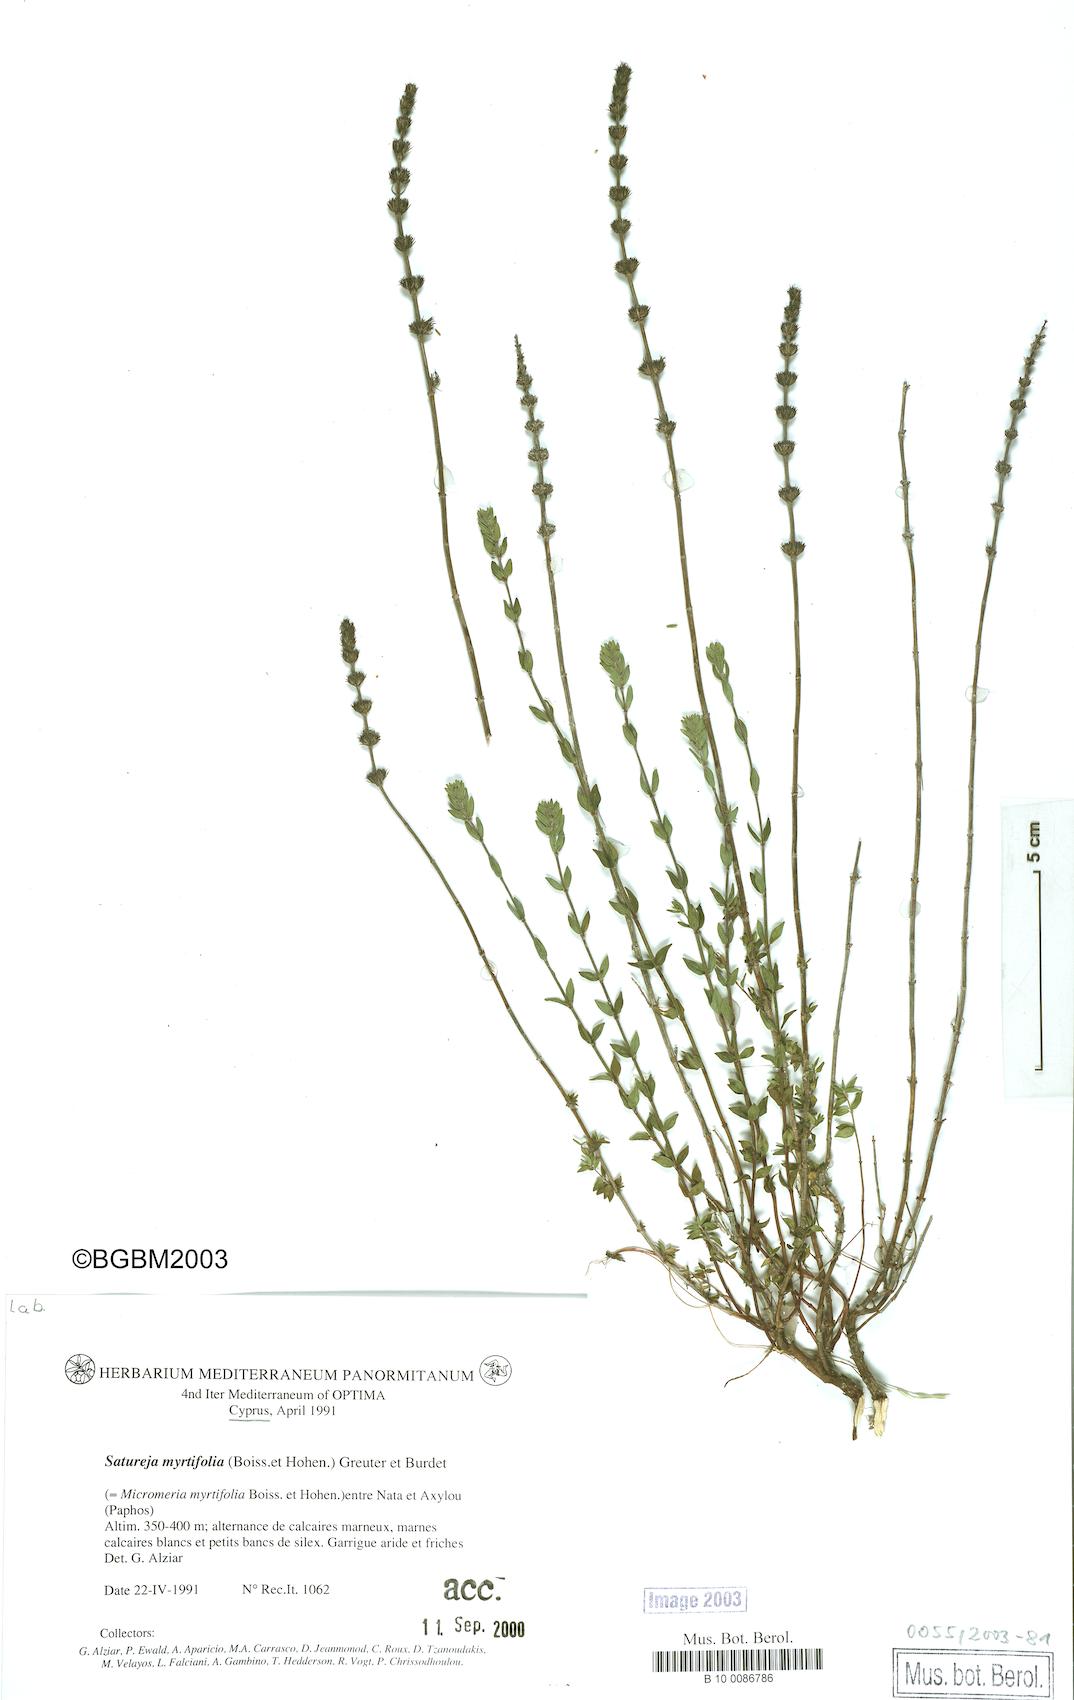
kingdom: Plantae
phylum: Tracheophyta
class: Magnoliopsida
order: Lamiales
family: Lamiaceae
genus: Micromeria
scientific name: Micromeria myrtifolia
